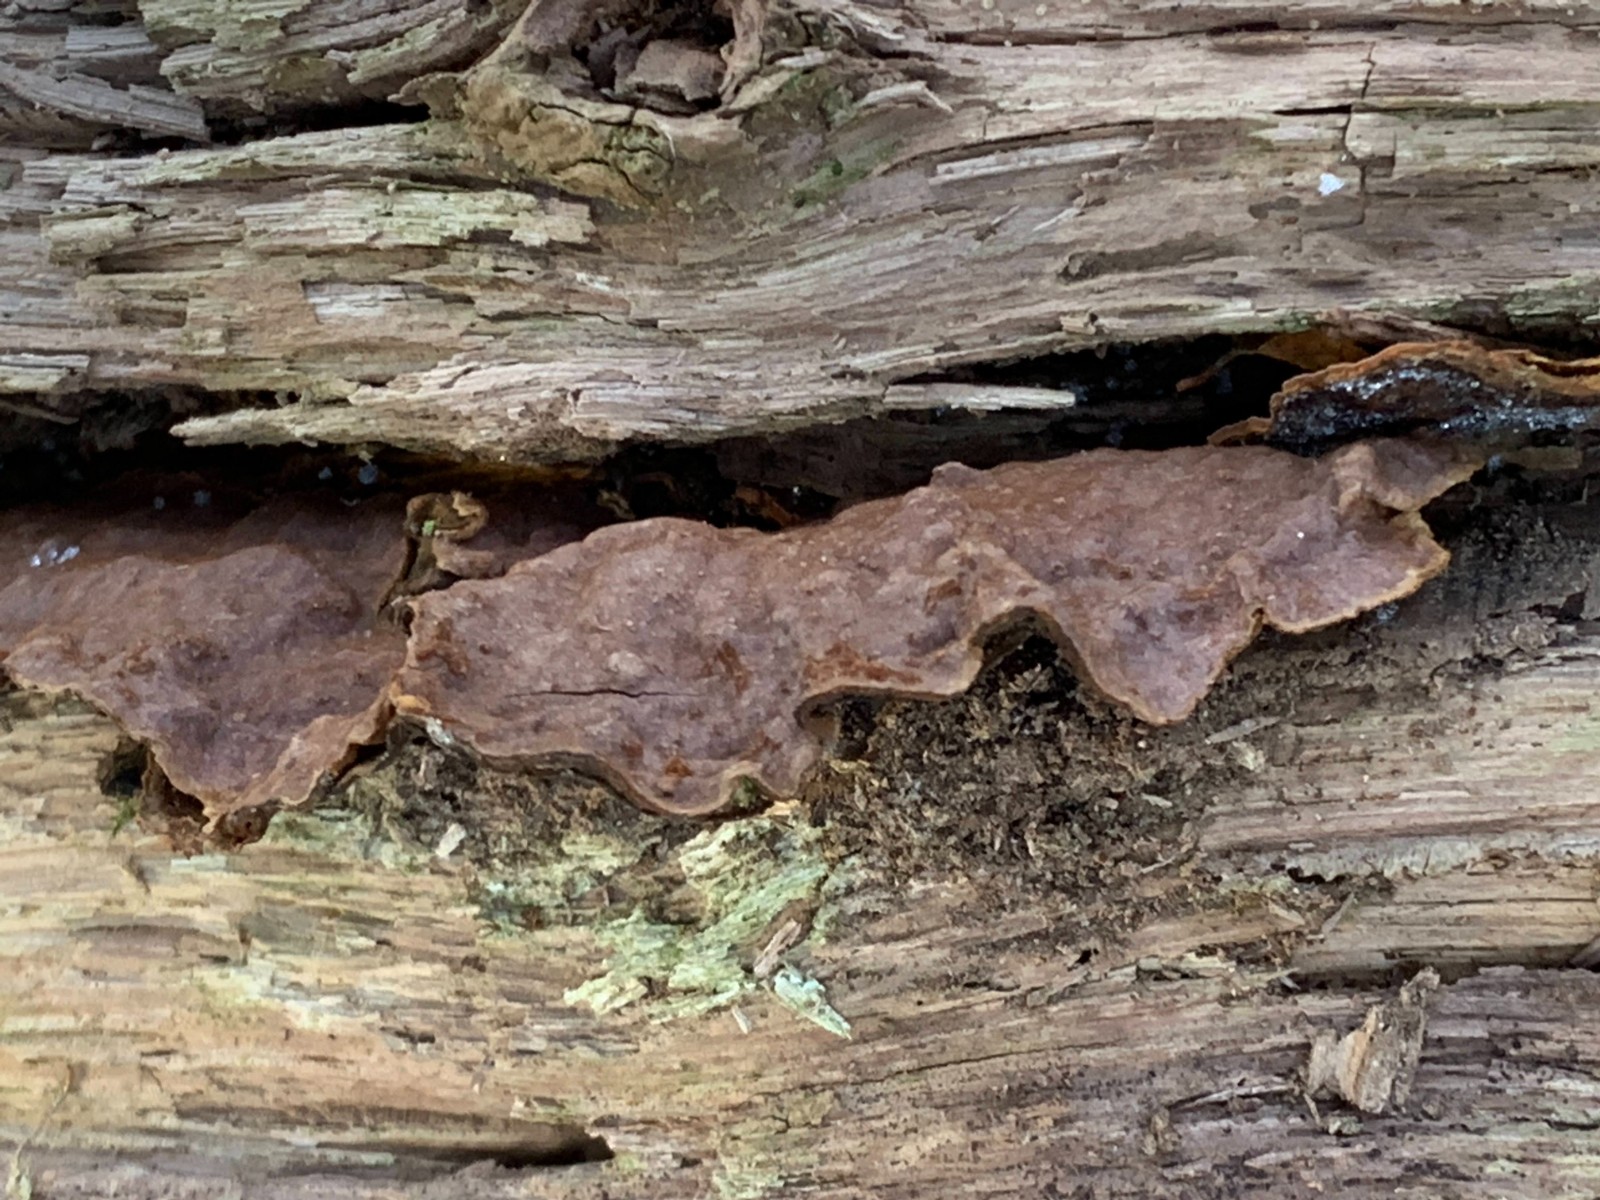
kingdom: Fungi
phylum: Basidiomycota
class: Agaricomycetes
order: Hymenochaetales
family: Hymenochaetaceae
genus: Hymenochaete
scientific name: Hymenochaete rubiginosa
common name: stiv ruslædersvamp
